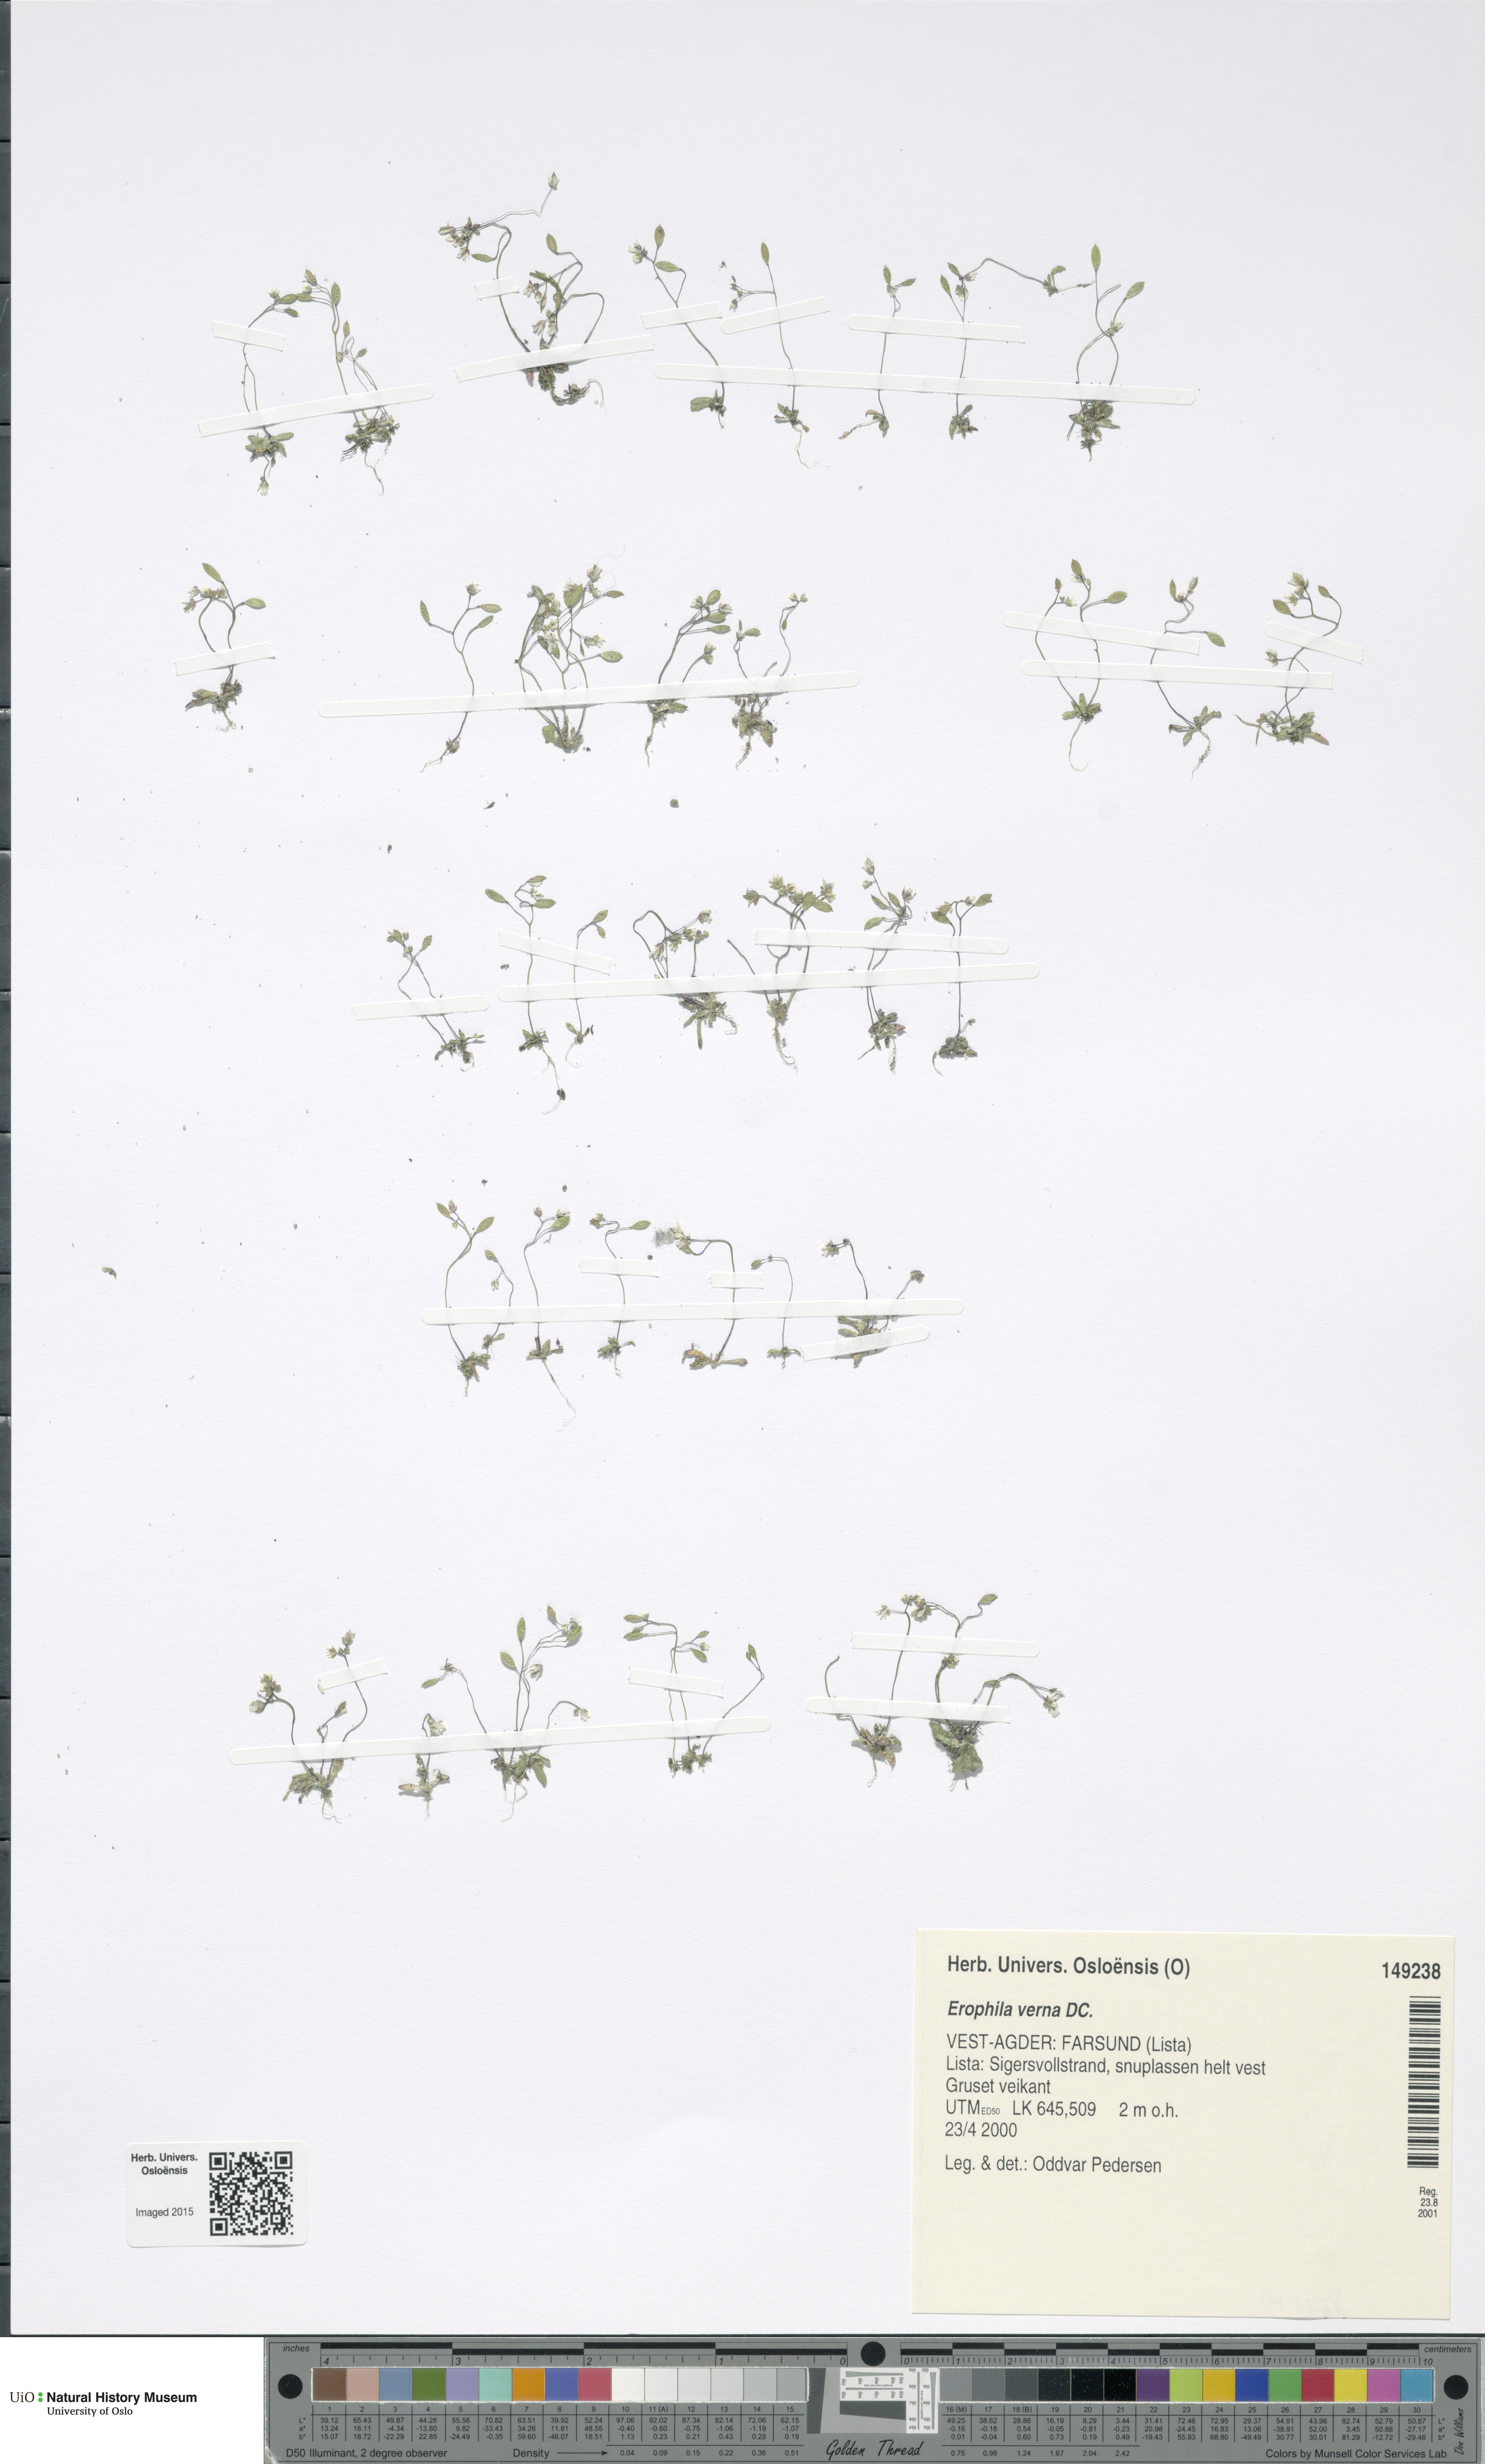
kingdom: Plantae
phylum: Tracheophyta
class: Magnoliopsida
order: Brassicales
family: Brassicaceae
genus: Draba
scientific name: Draba verna
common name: Spring draba
